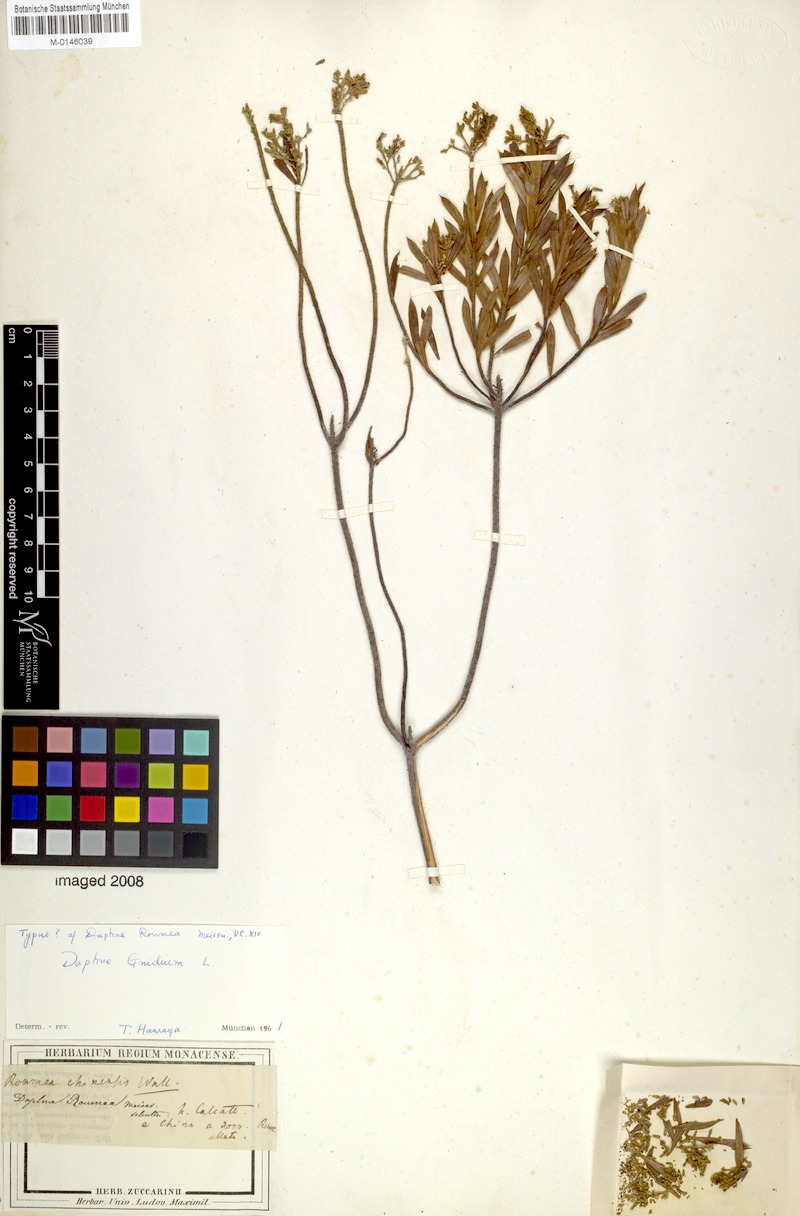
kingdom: Plantae
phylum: Tracheophyta
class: Magnoliopsida
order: Malvales
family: Thymelaeaceae
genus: Daphne
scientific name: Daphne gnidium
